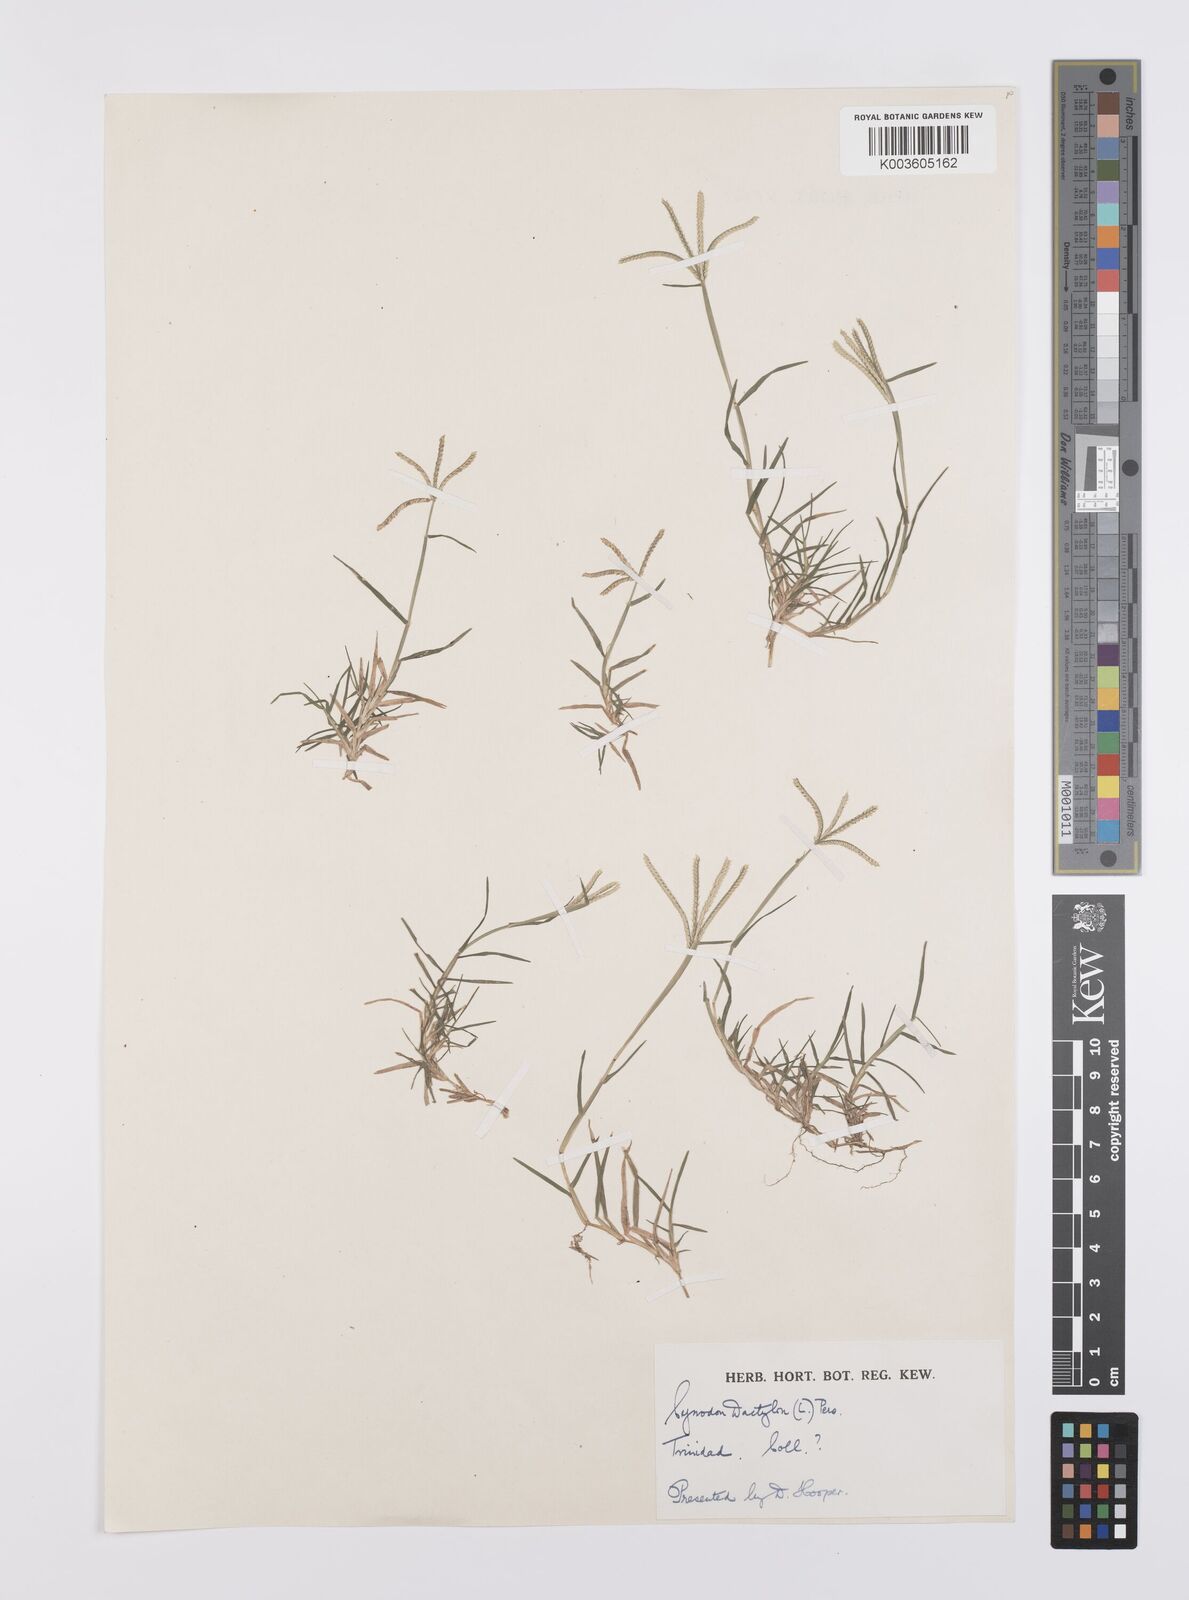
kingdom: Plantae
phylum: Tracheophyta
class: Liliopsida
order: Poales
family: Poaceae
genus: Cynodon
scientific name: Cynodon dactylon
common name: Bermuda grass
